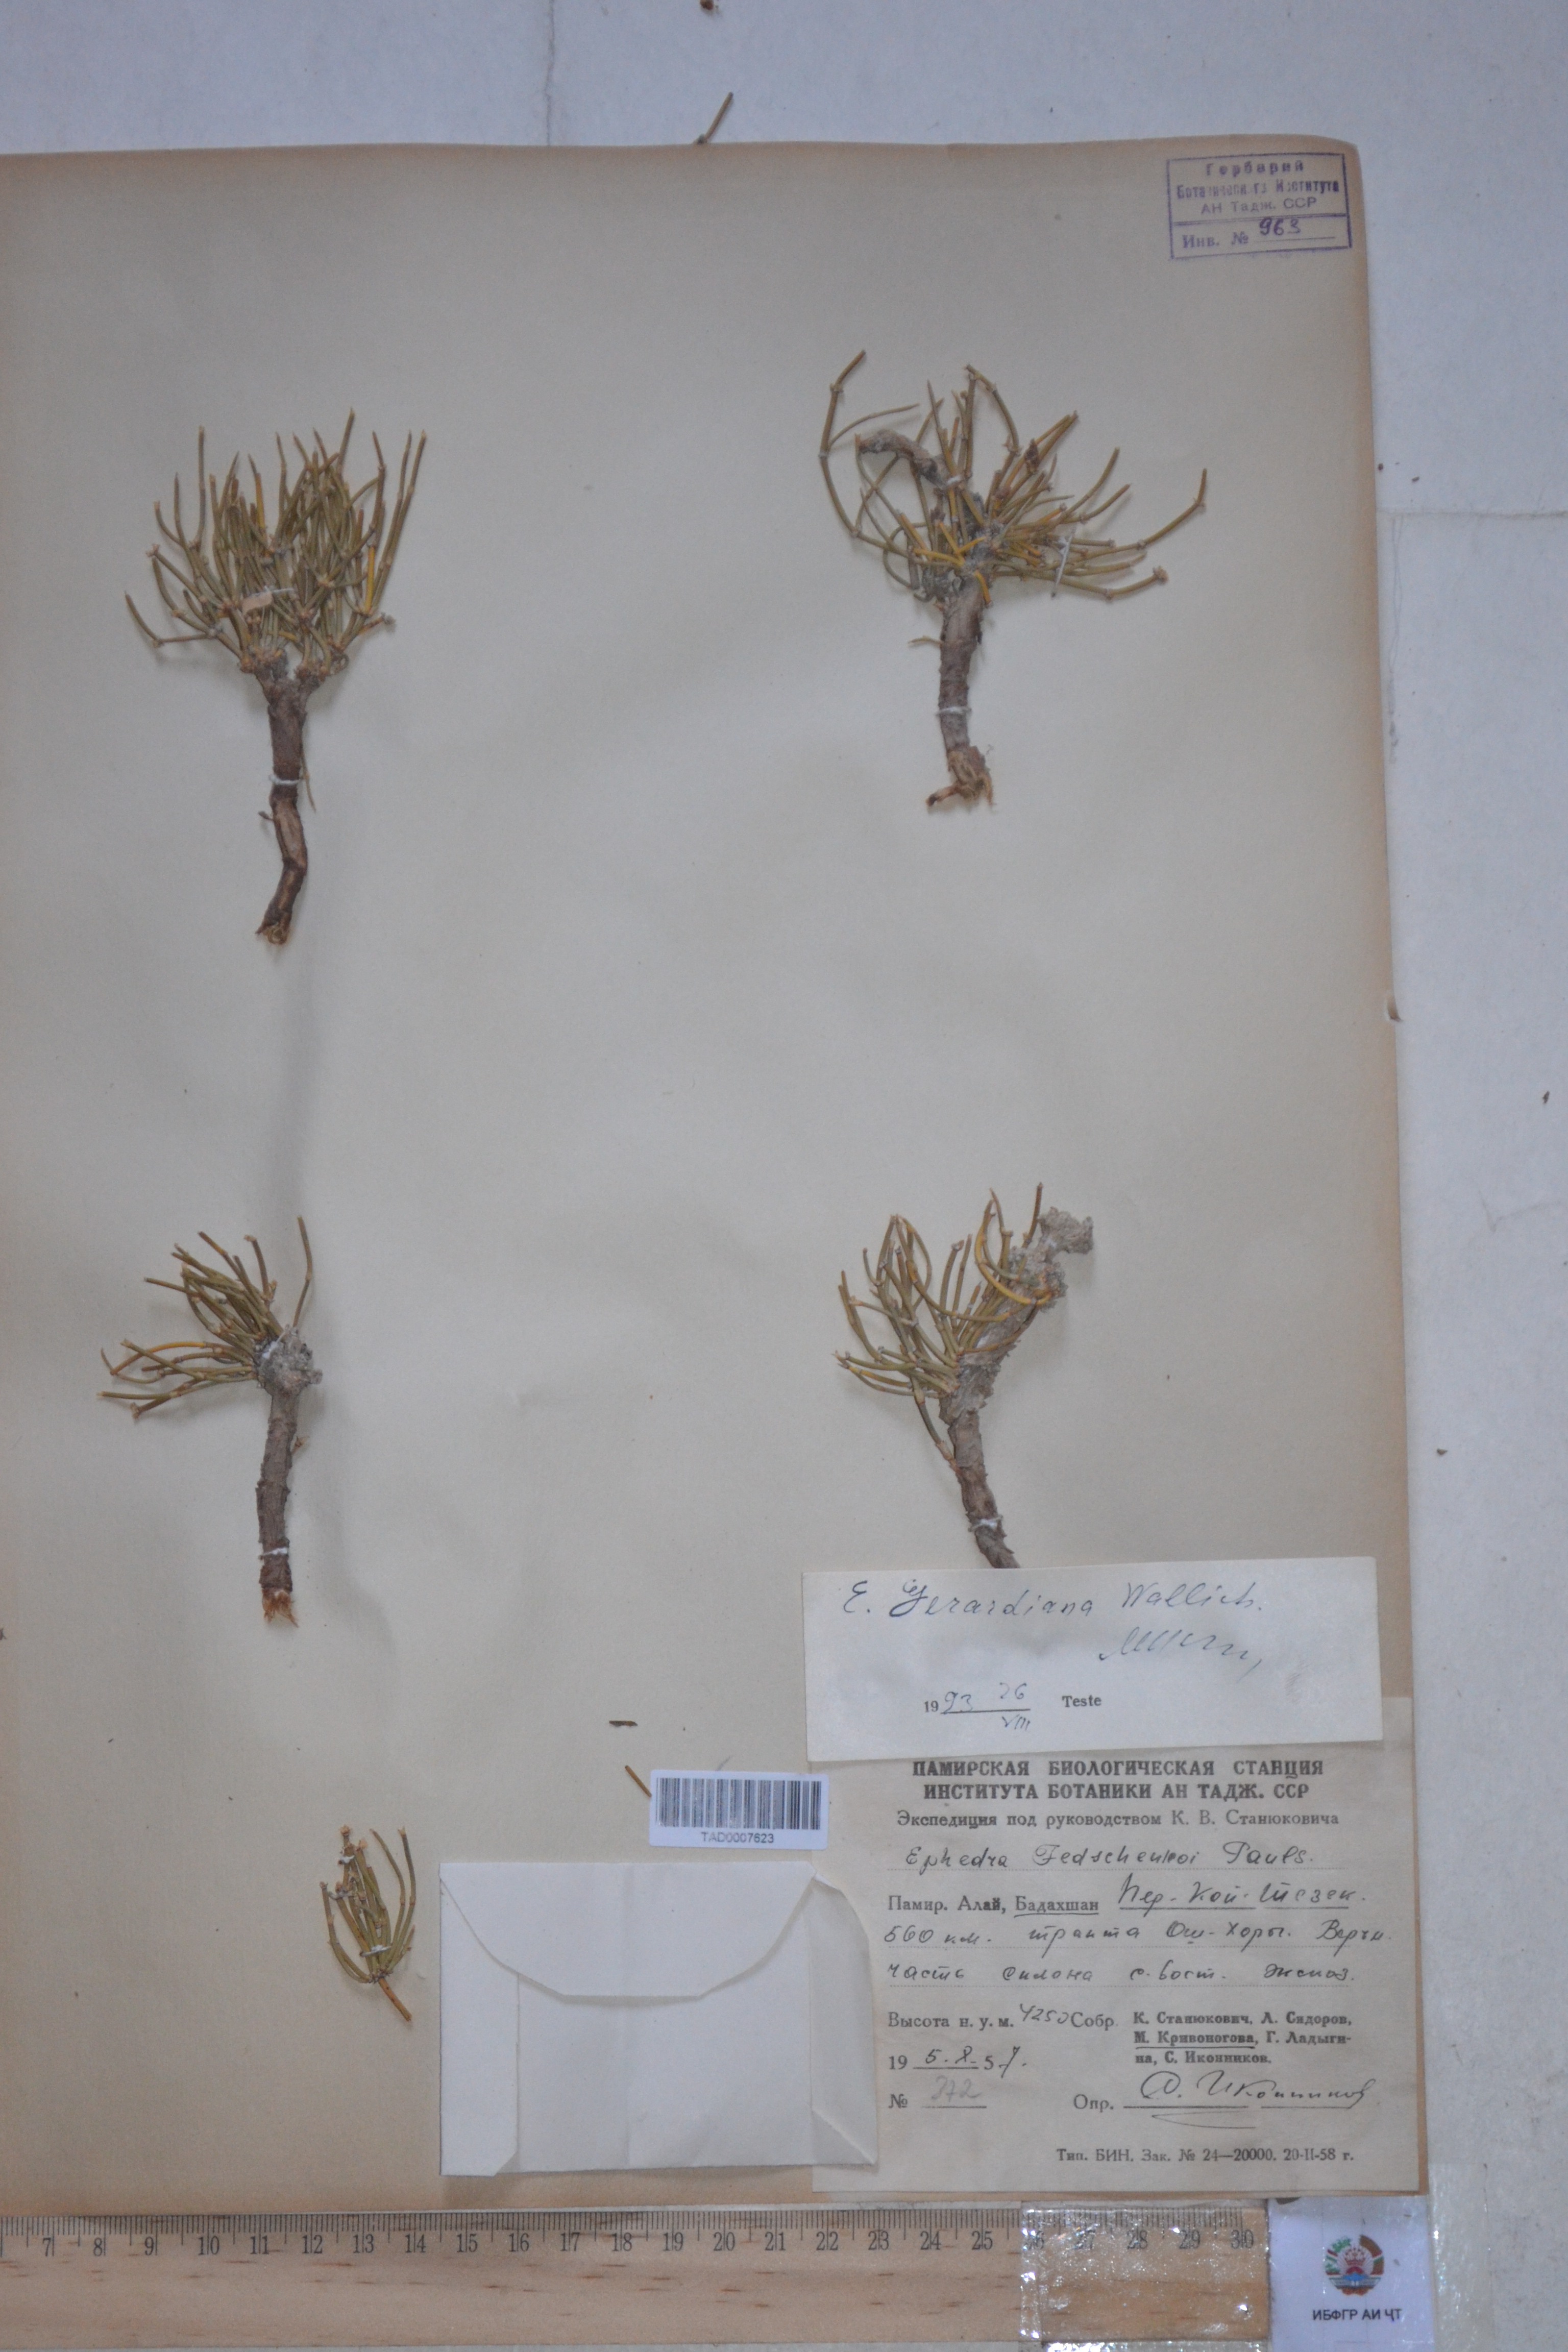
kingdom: Plantae
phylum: Tracheophyta
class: Gnetopsida
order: Ephedrales
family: Ephedraceae
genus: Ephedra
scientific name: Ephedra gerardiana
